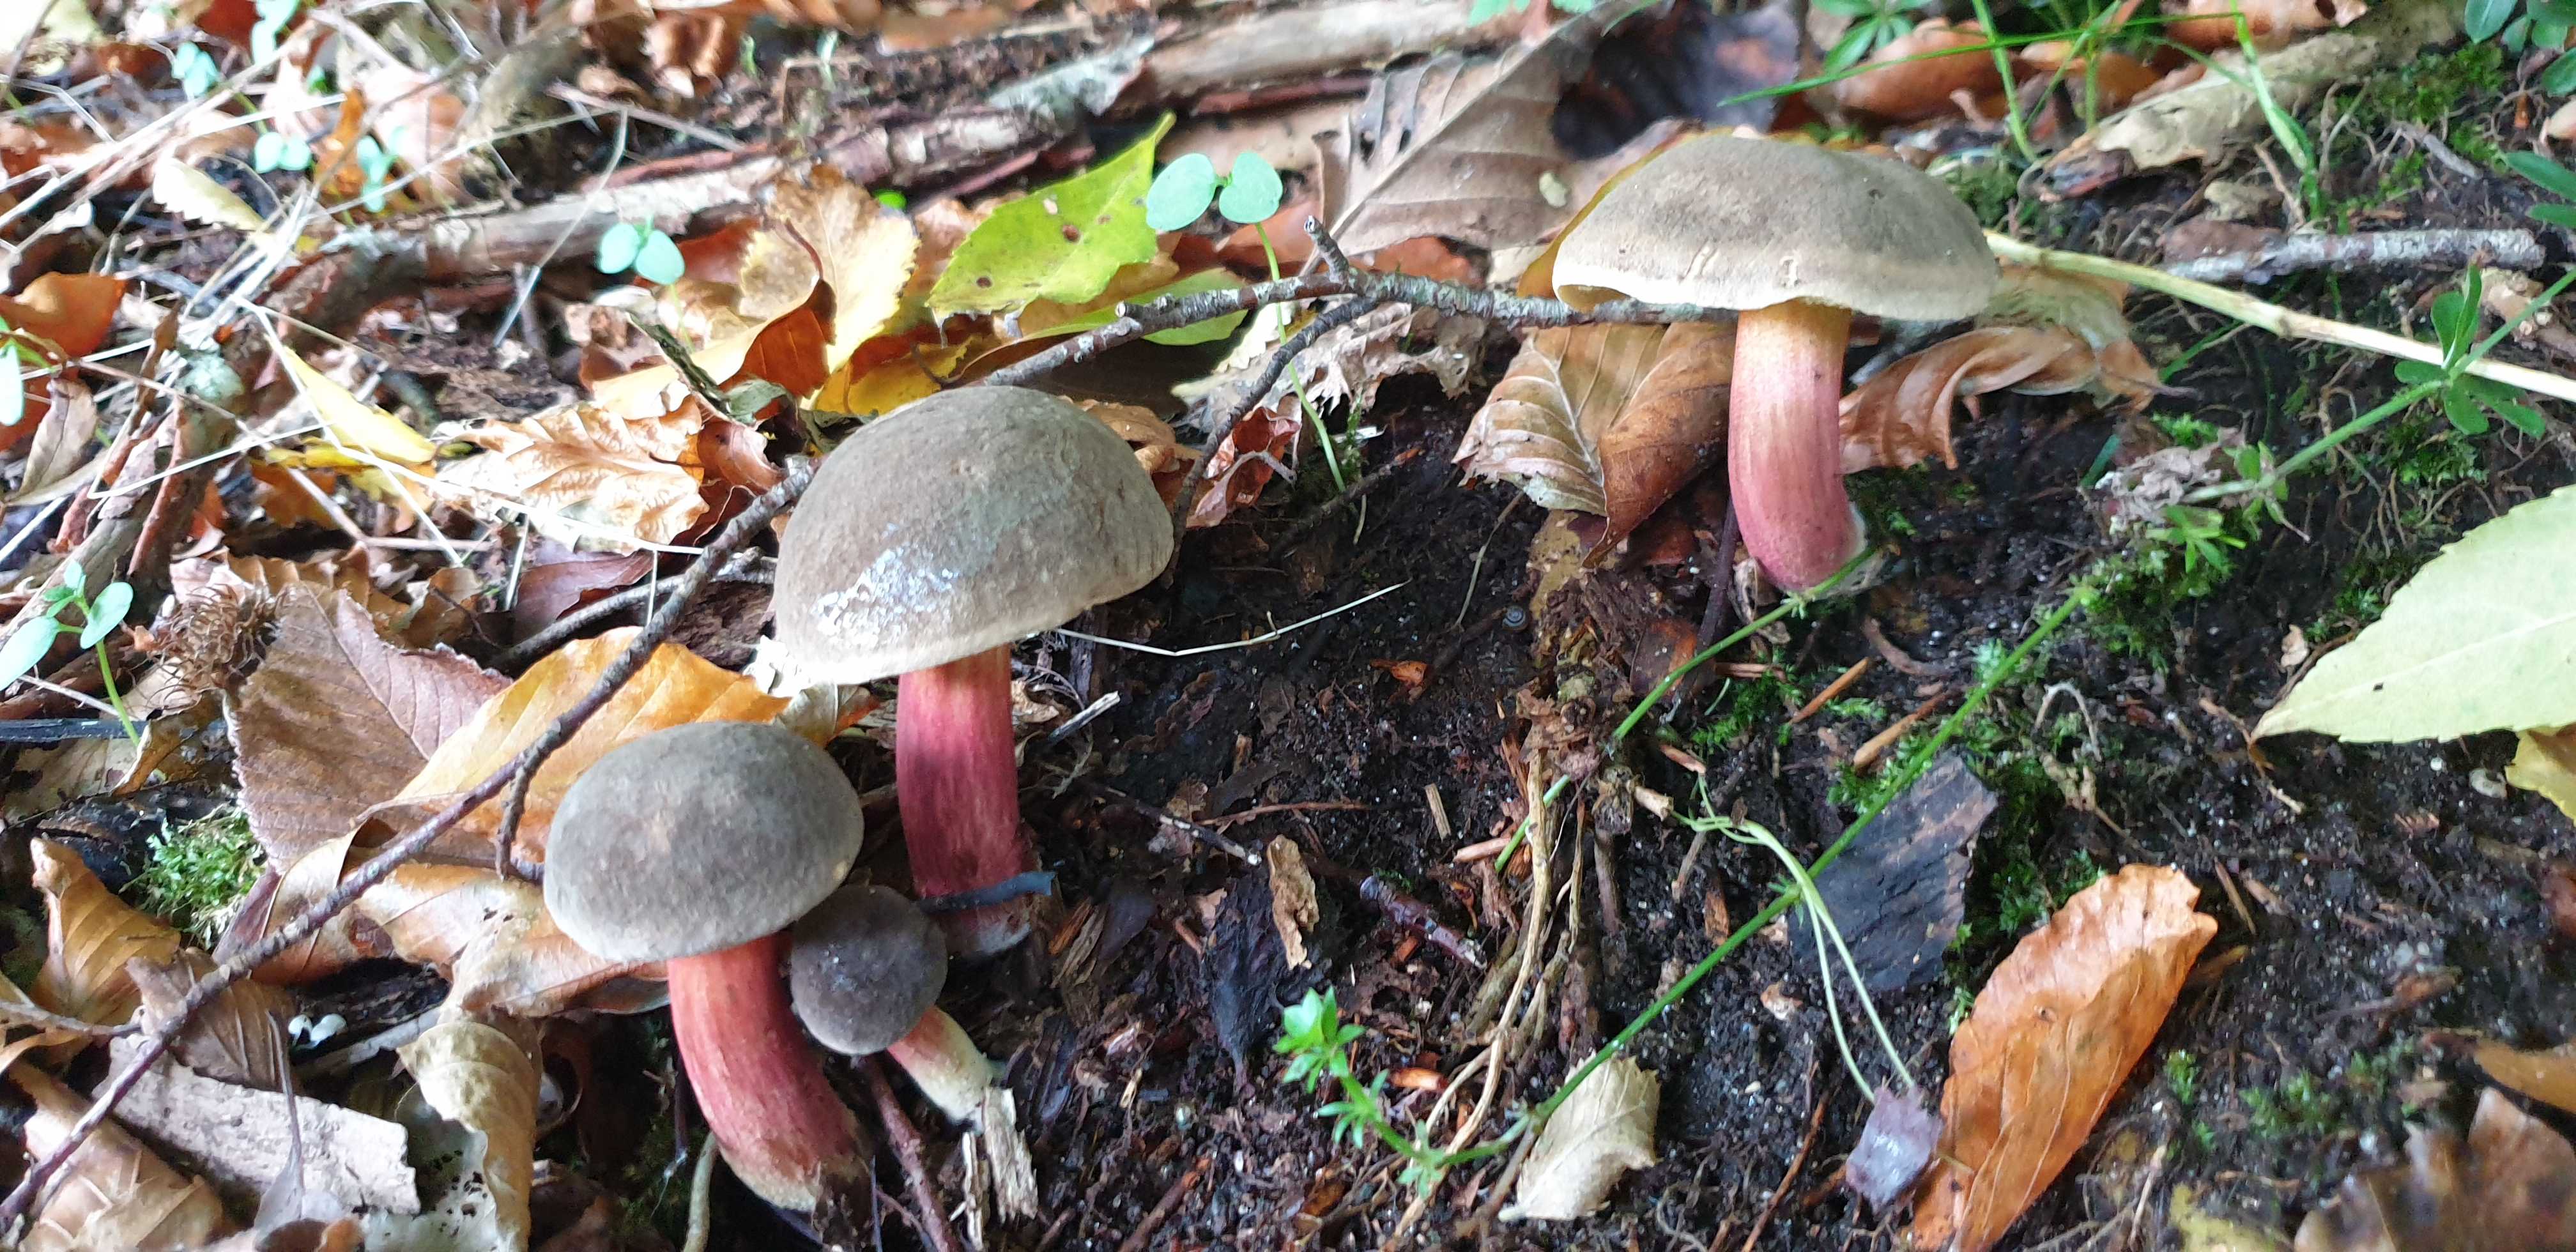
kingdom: Fungi
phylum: Basidiomycota
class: Agaricomycetes
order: Boletales
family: Boletaceae
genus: Xerocomellus
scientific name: Xerocomellus pruinatus
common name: dugget rørhat
